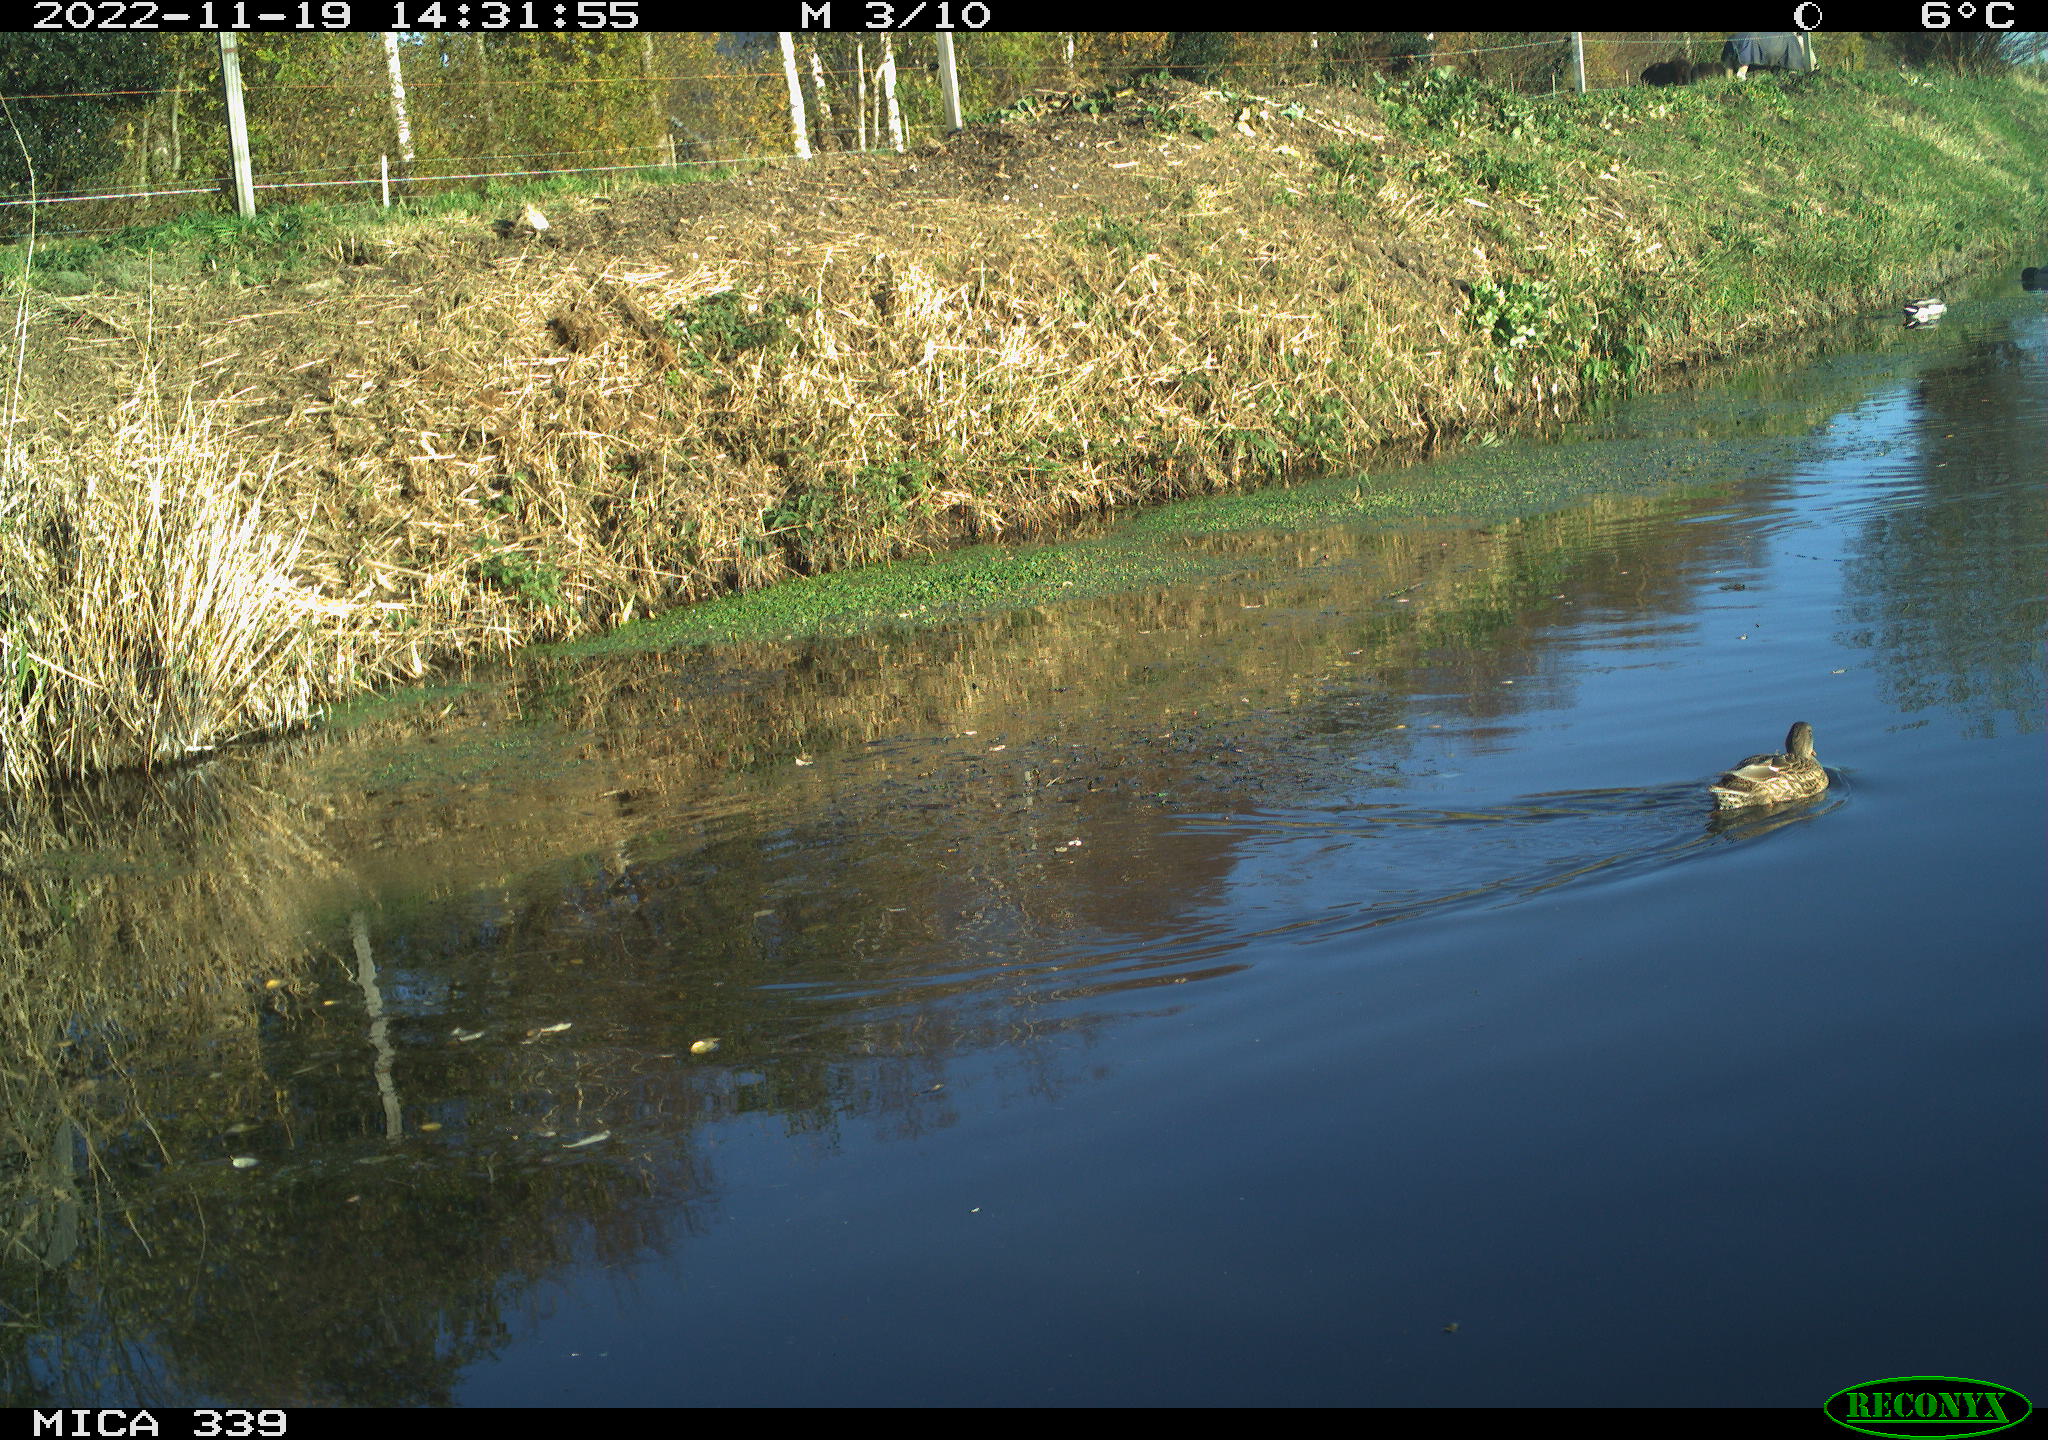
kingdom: Animalia
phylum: Chordata
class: Aves
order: Anseriformes
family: Anatidae
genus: Anas
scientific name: Anas platyrhynchos
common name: Mallard
